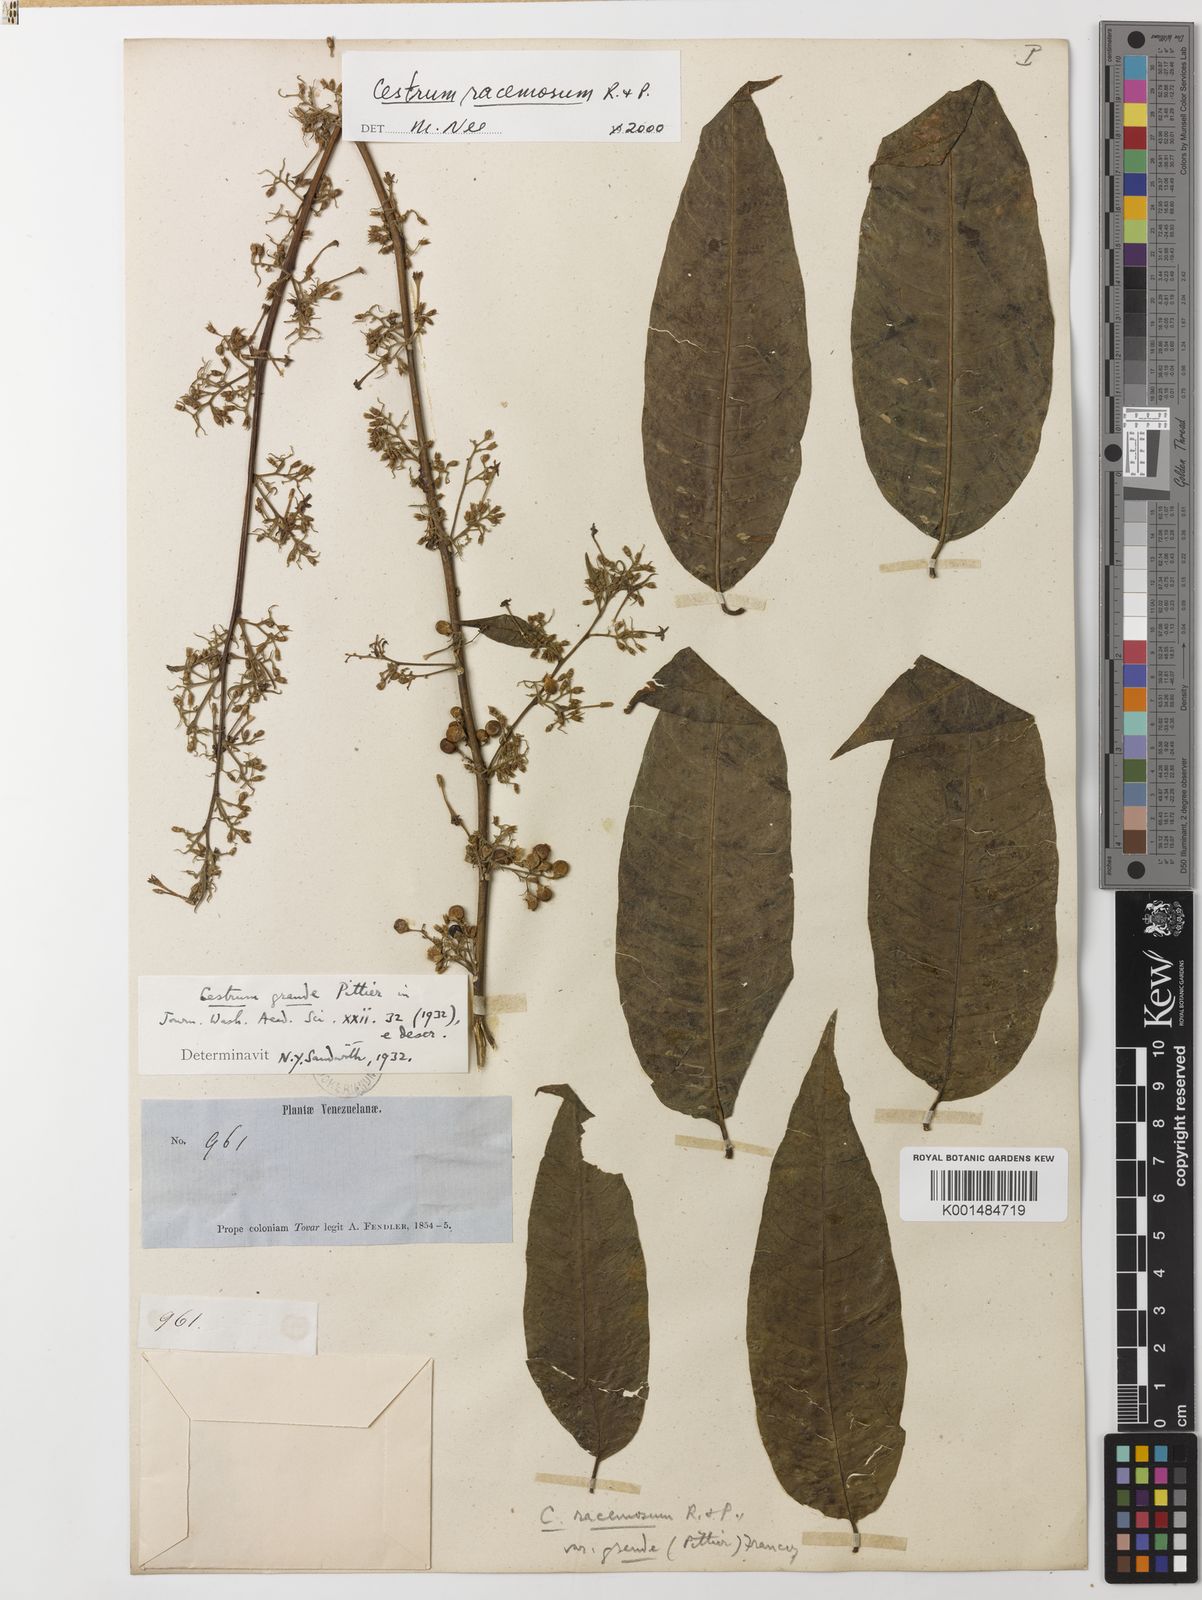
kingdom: Plantae
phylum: Tracheophyta
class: Magnoliopsida
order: Solanales
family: Solanaceae
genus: Cestrum
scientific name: Cestrum racemosum
